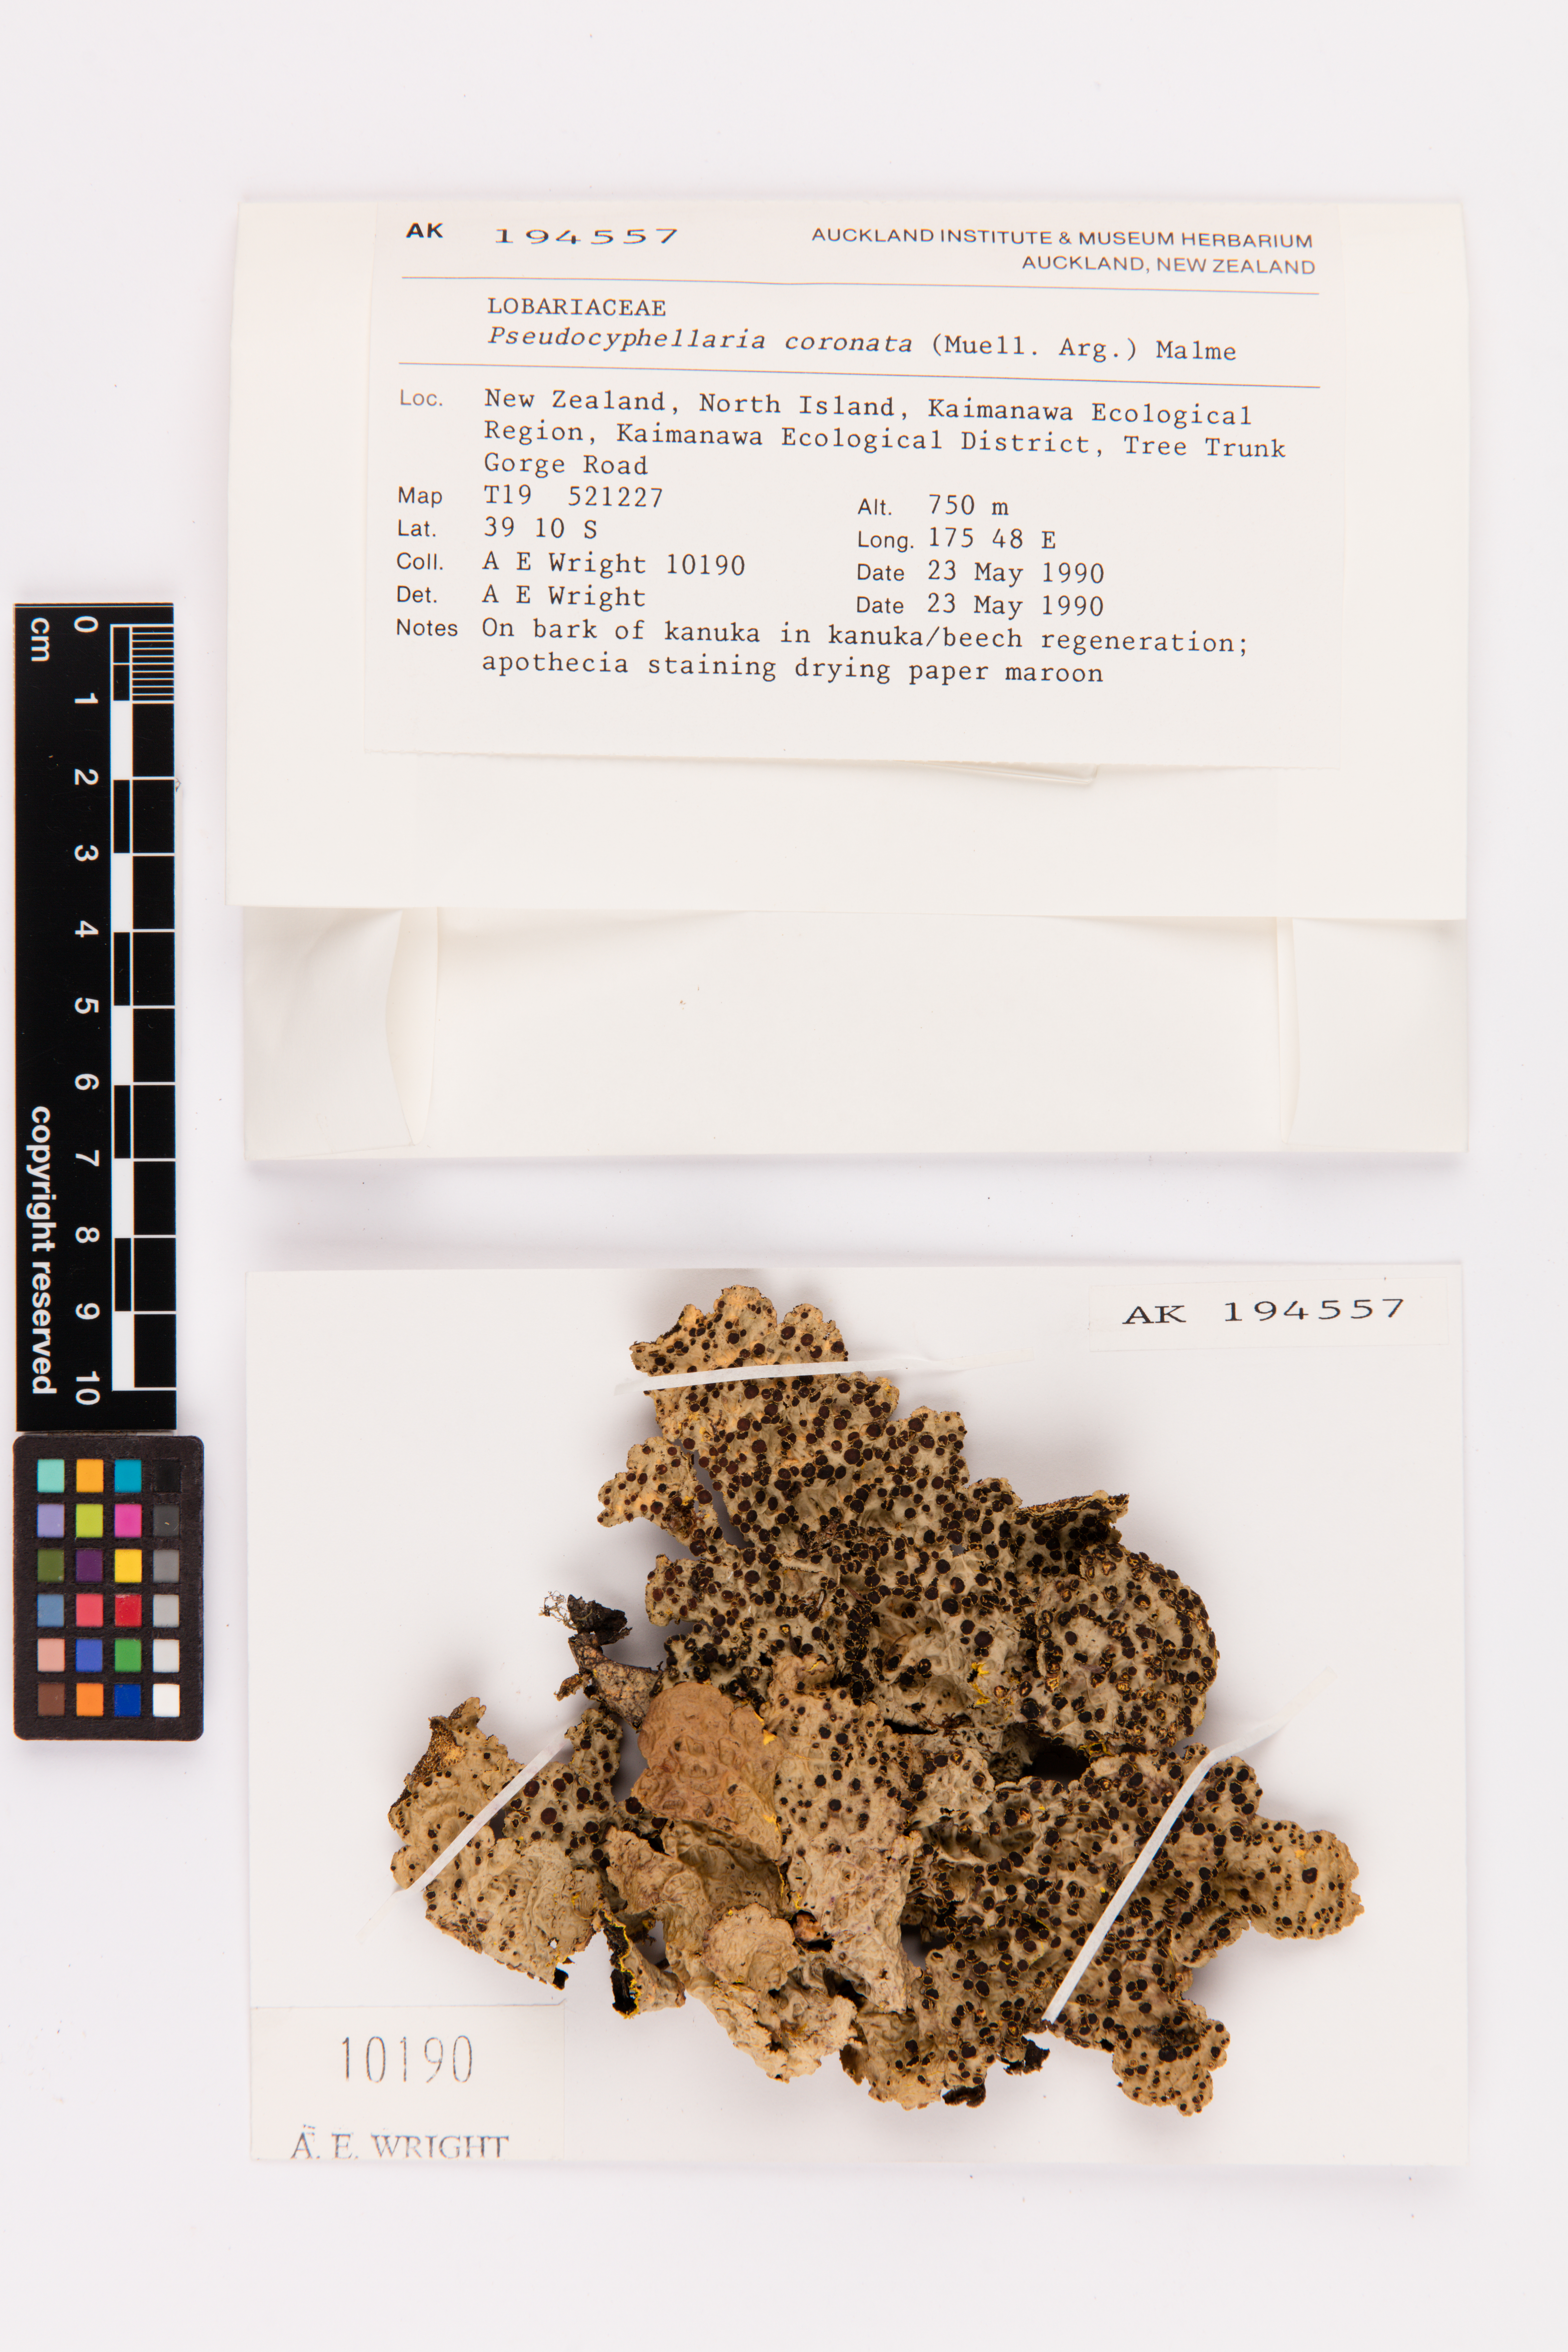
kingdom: Fungi
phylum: Ascomycota
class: Lecanoromycetes
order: Peltigerales
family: Lobariaceae
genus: Yarrumia
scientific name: Yarrumia coronata
